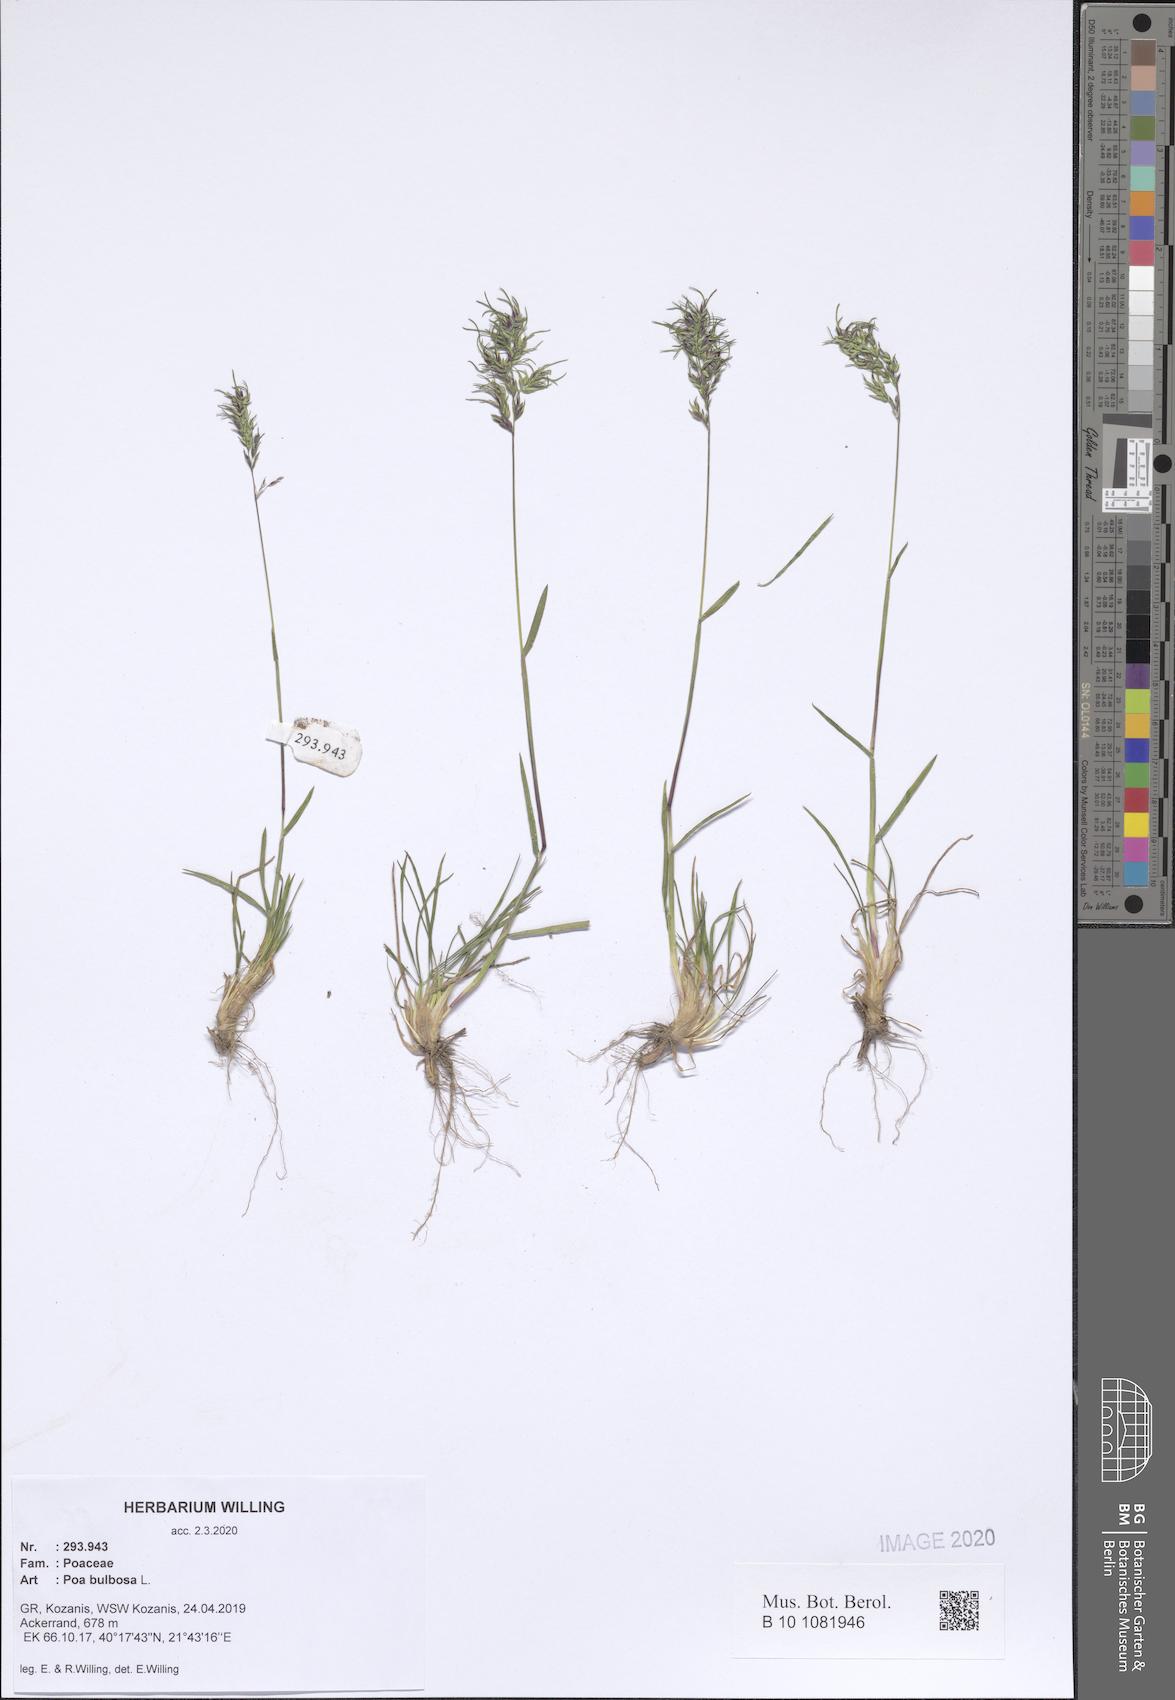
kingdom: Plantae
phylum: Tracheophyta
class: Liliopsida
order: Poales
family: Poaceae
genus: Poa
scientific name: Poa bulbosa
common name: Bulbous bluegrass
